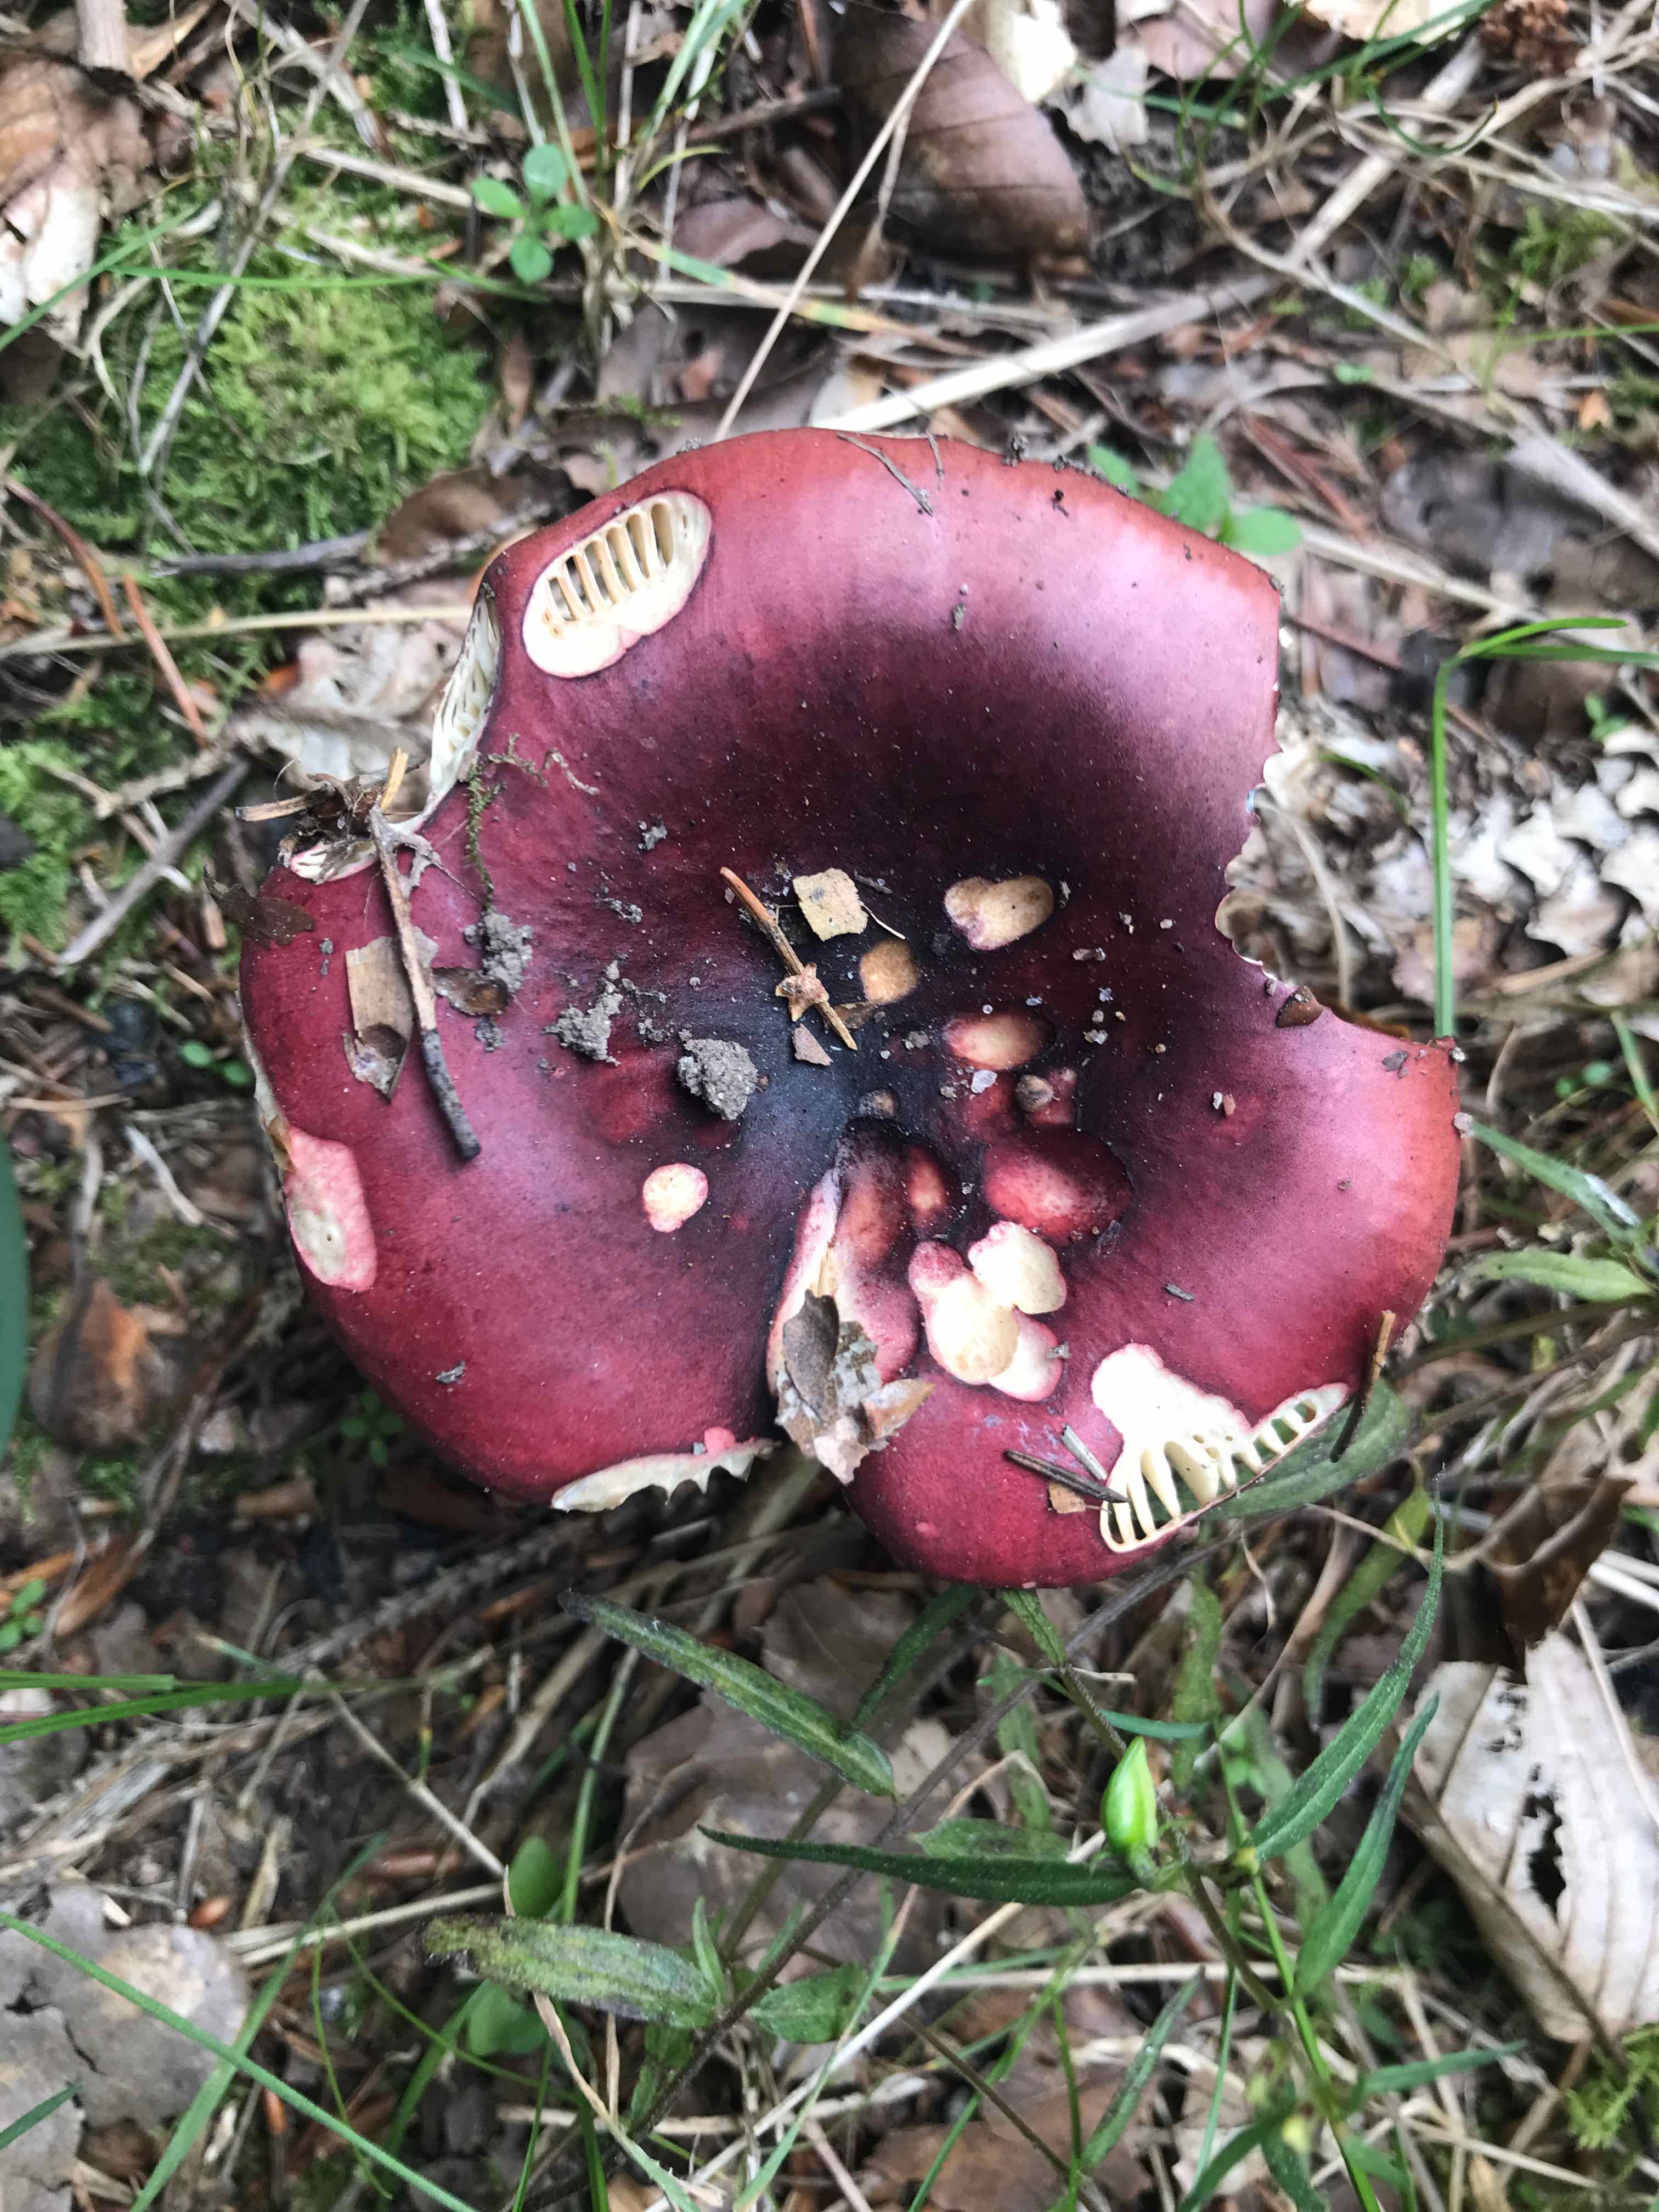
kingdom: Fungi
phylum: Basidiomycota
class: Agaricomycetes
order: Russulales
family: Russulaceae
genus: Russula
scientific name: Russula xerampelina
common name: hummer-skørhat
